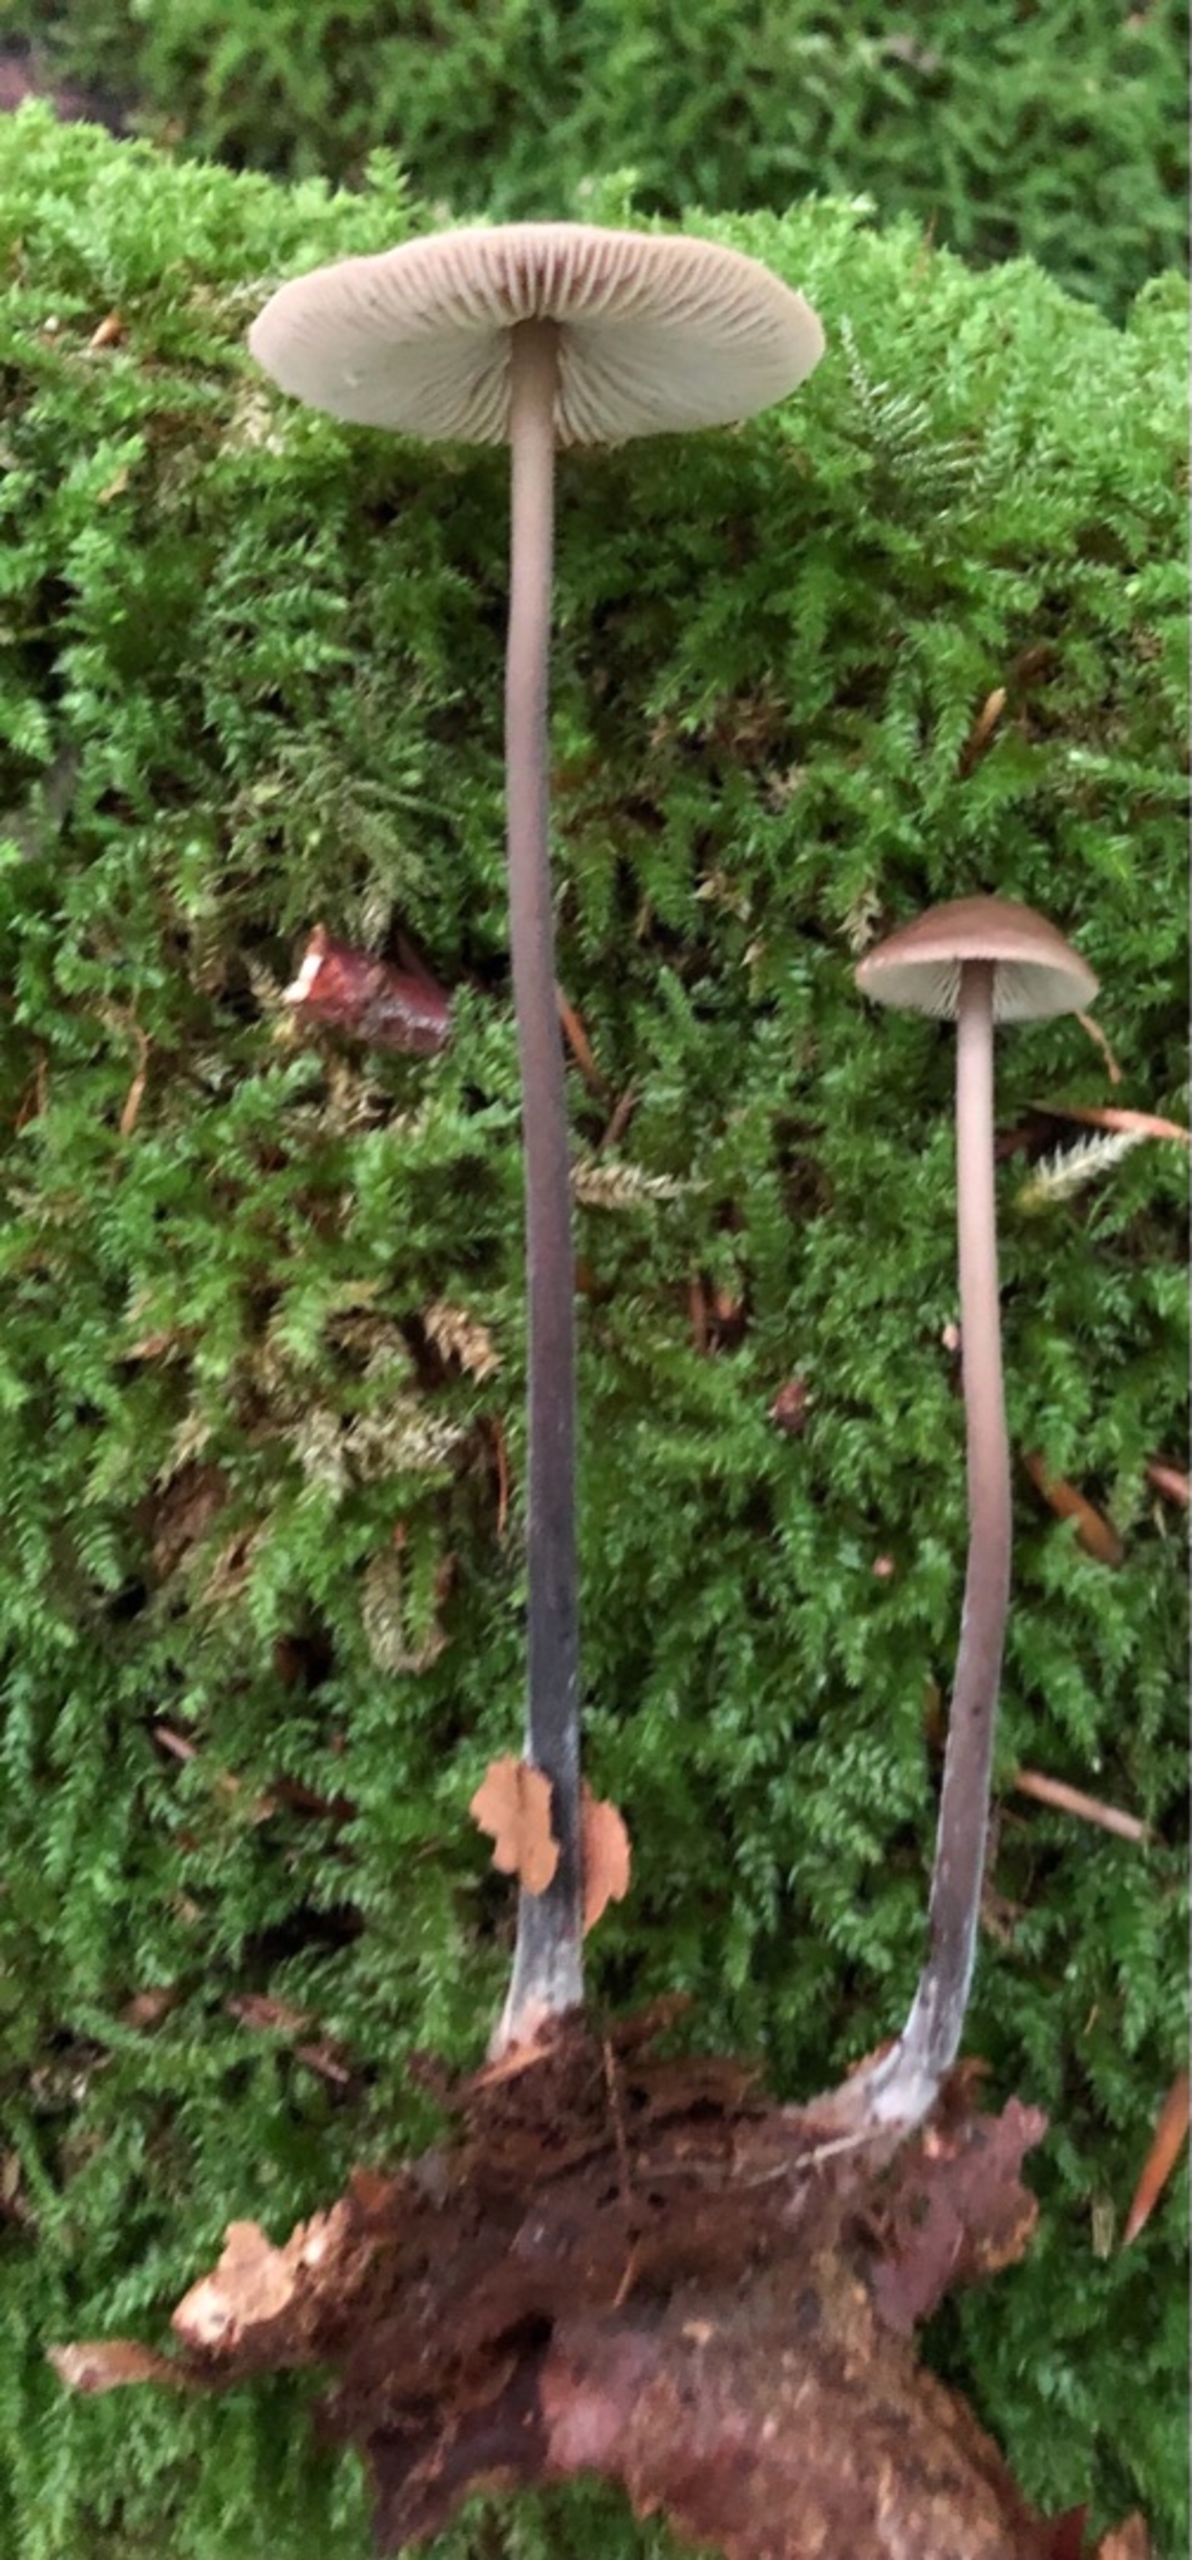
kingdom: Fungi
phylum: Basidiomycota
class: Agaricomycetes
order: Agaricales
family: Omphalotaceae
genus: Mycetinis
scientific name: Mycetinis alliaceus
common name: Stor løghat
